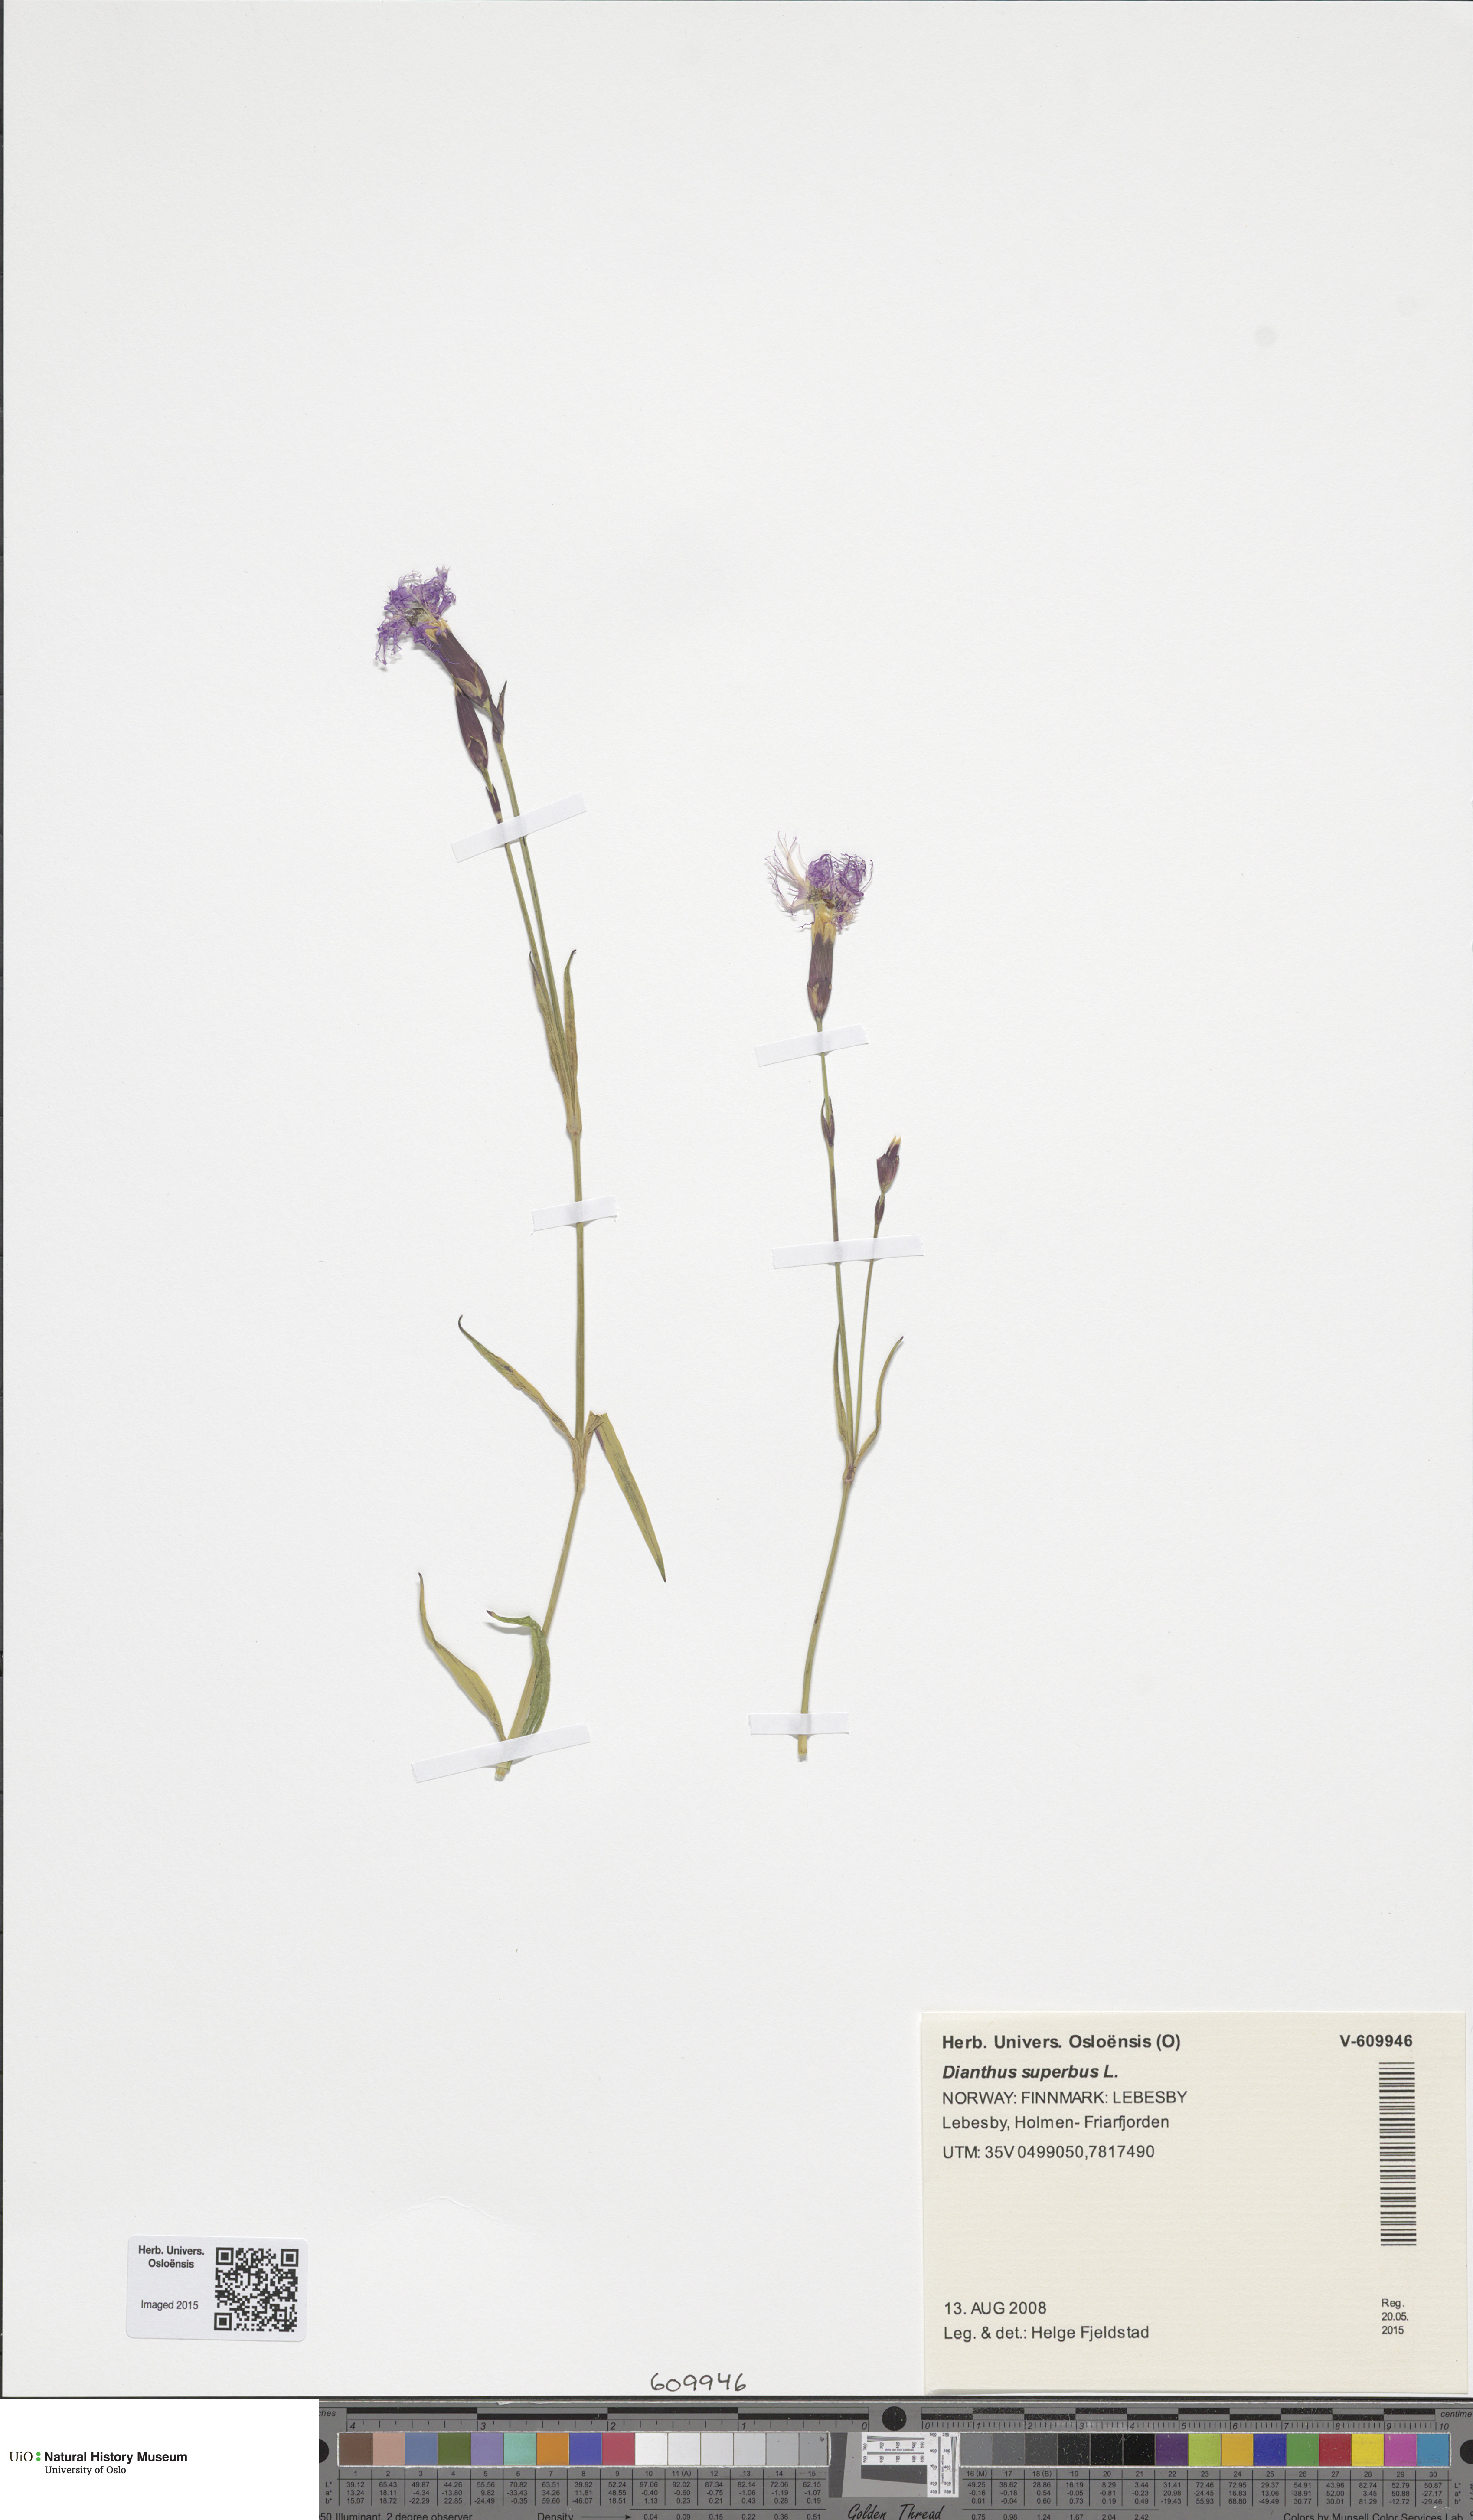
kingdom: Plantae
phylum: Tracheophyta
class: Magnoliopsida
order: Caryophyllales
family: Caryophyllaceae
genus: Dianthus
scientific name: Dianthus superbus
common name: Fringed pink
